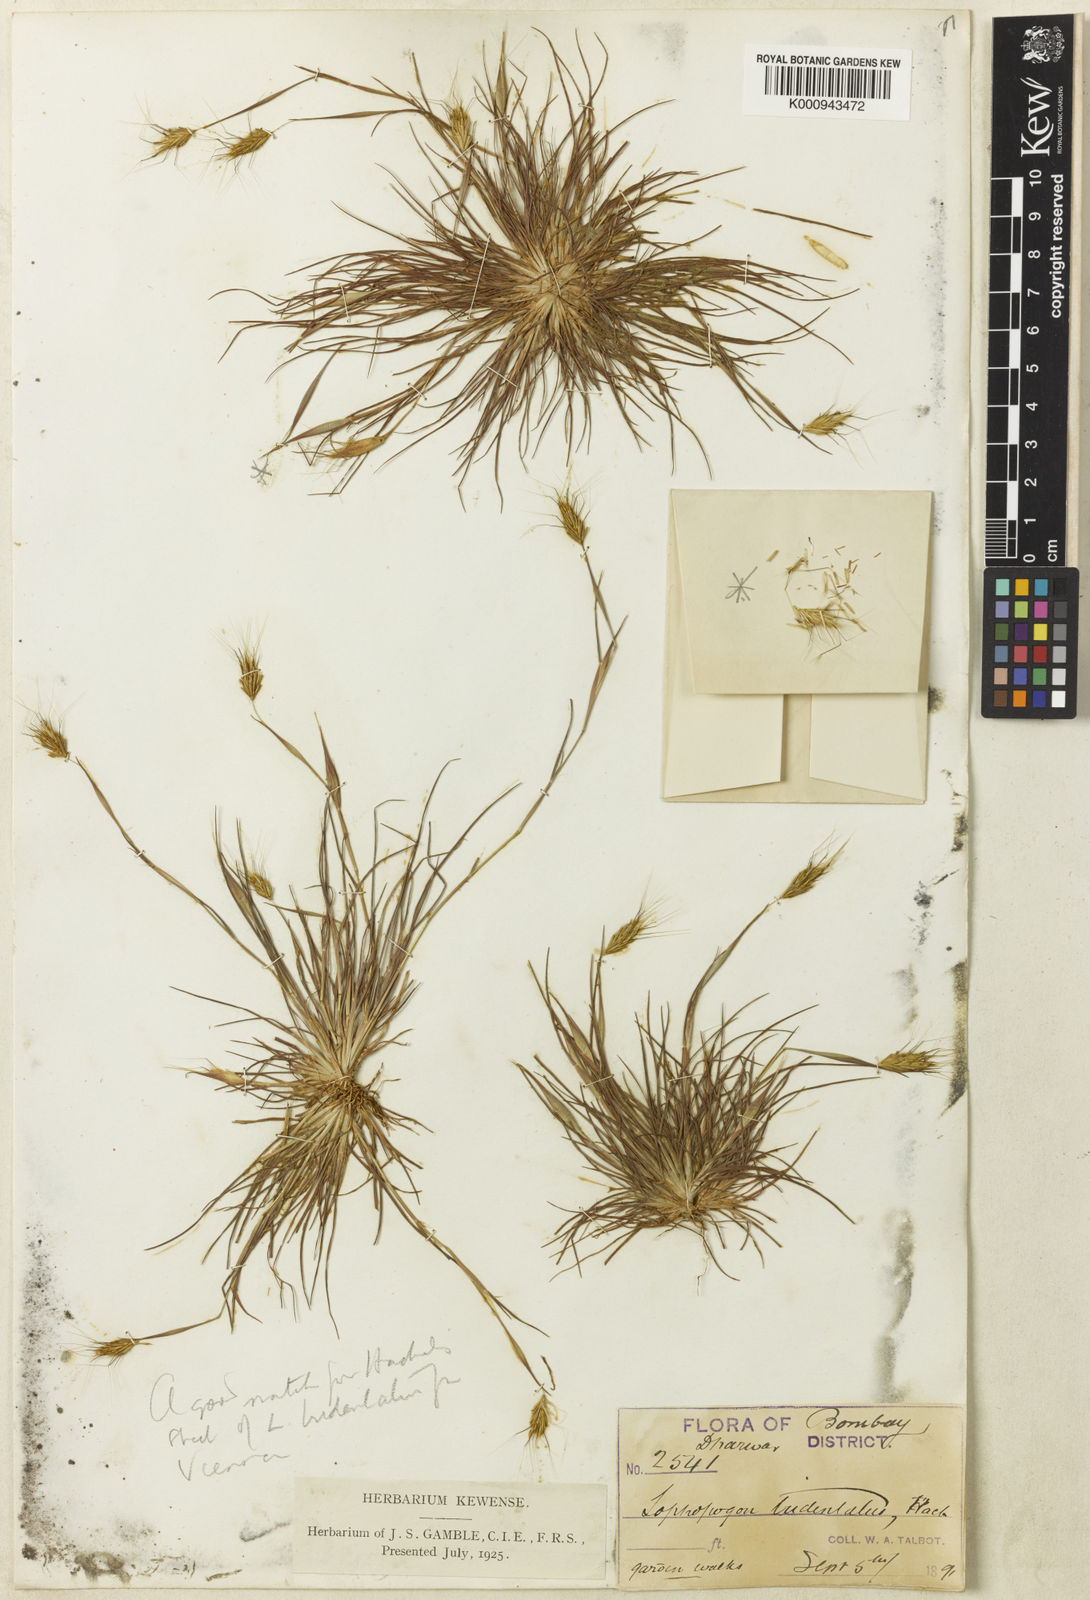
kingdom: Plantae
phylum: Tracheophyta
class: Liliopsida
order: Poales
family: Poaceae
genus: Lophopogon
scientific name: Lophopogon tridentatus
